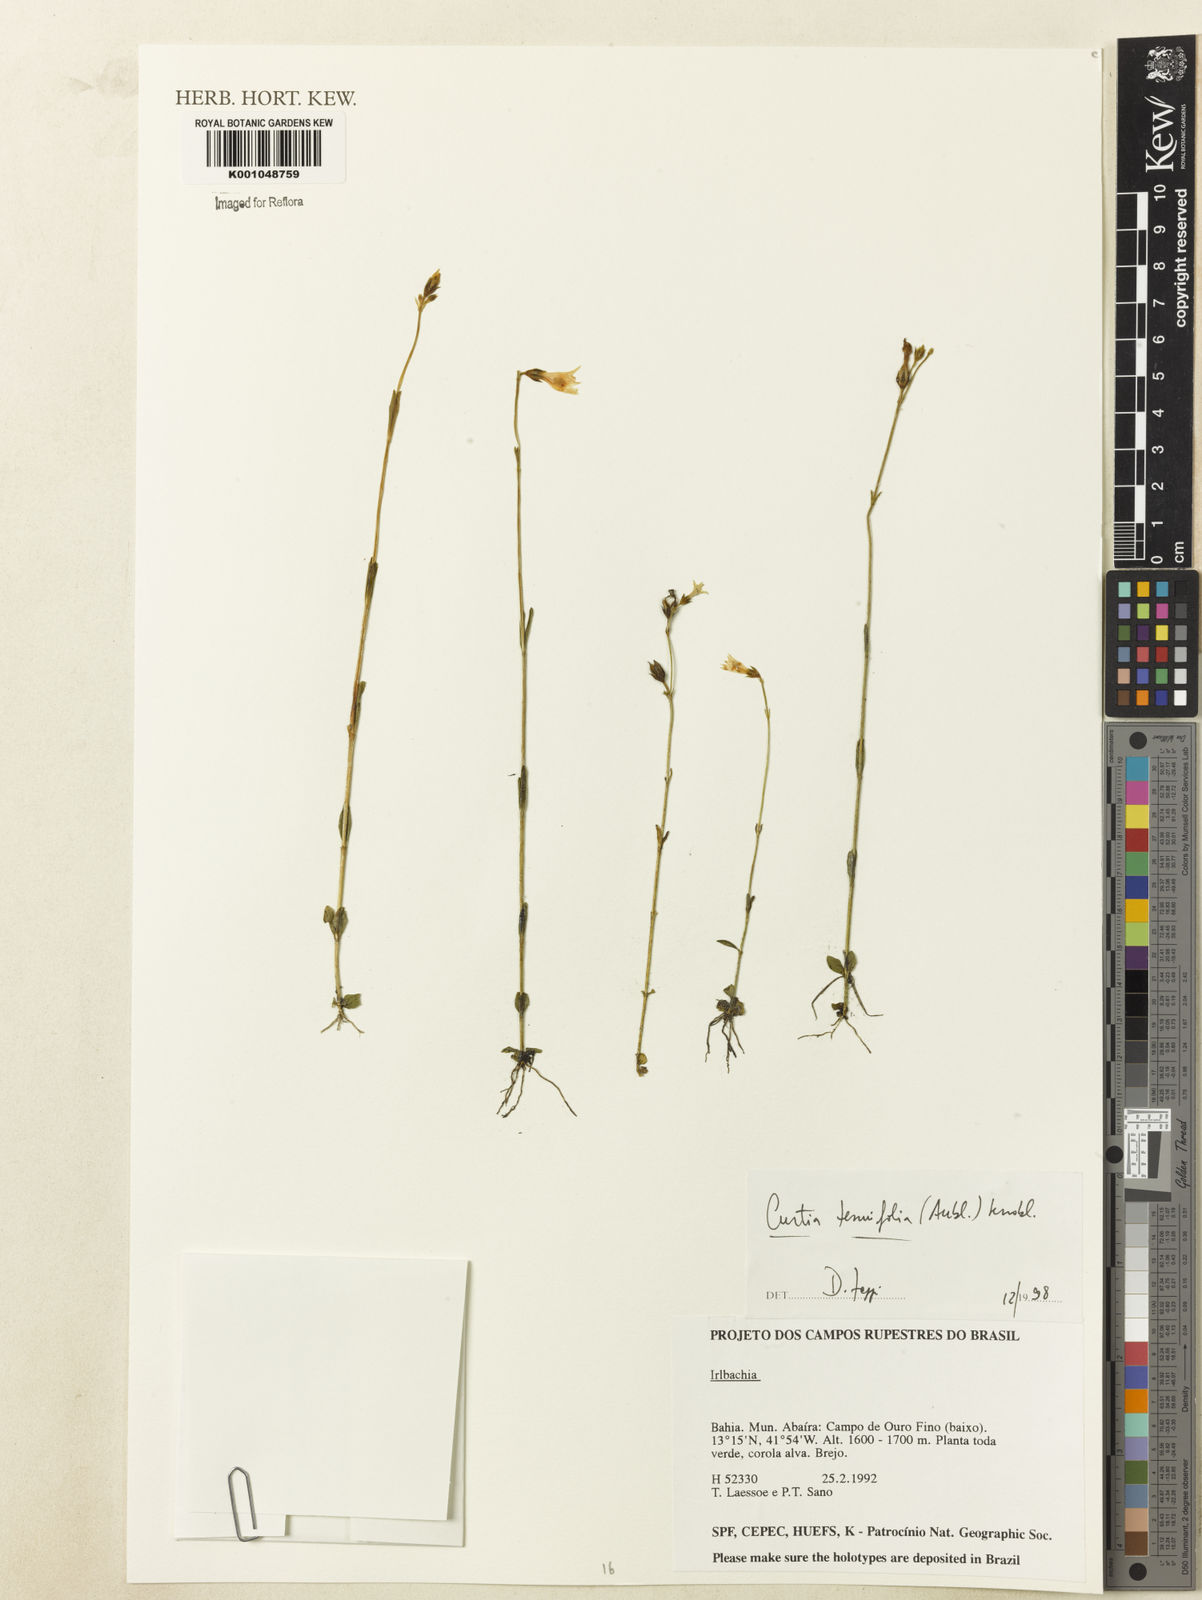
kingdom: Plantae
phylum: Tracheophyta
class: Magnoliopsida
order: Gentianales
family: Gentianaceae
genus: Curtia
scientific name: Curtia tenuifolia
